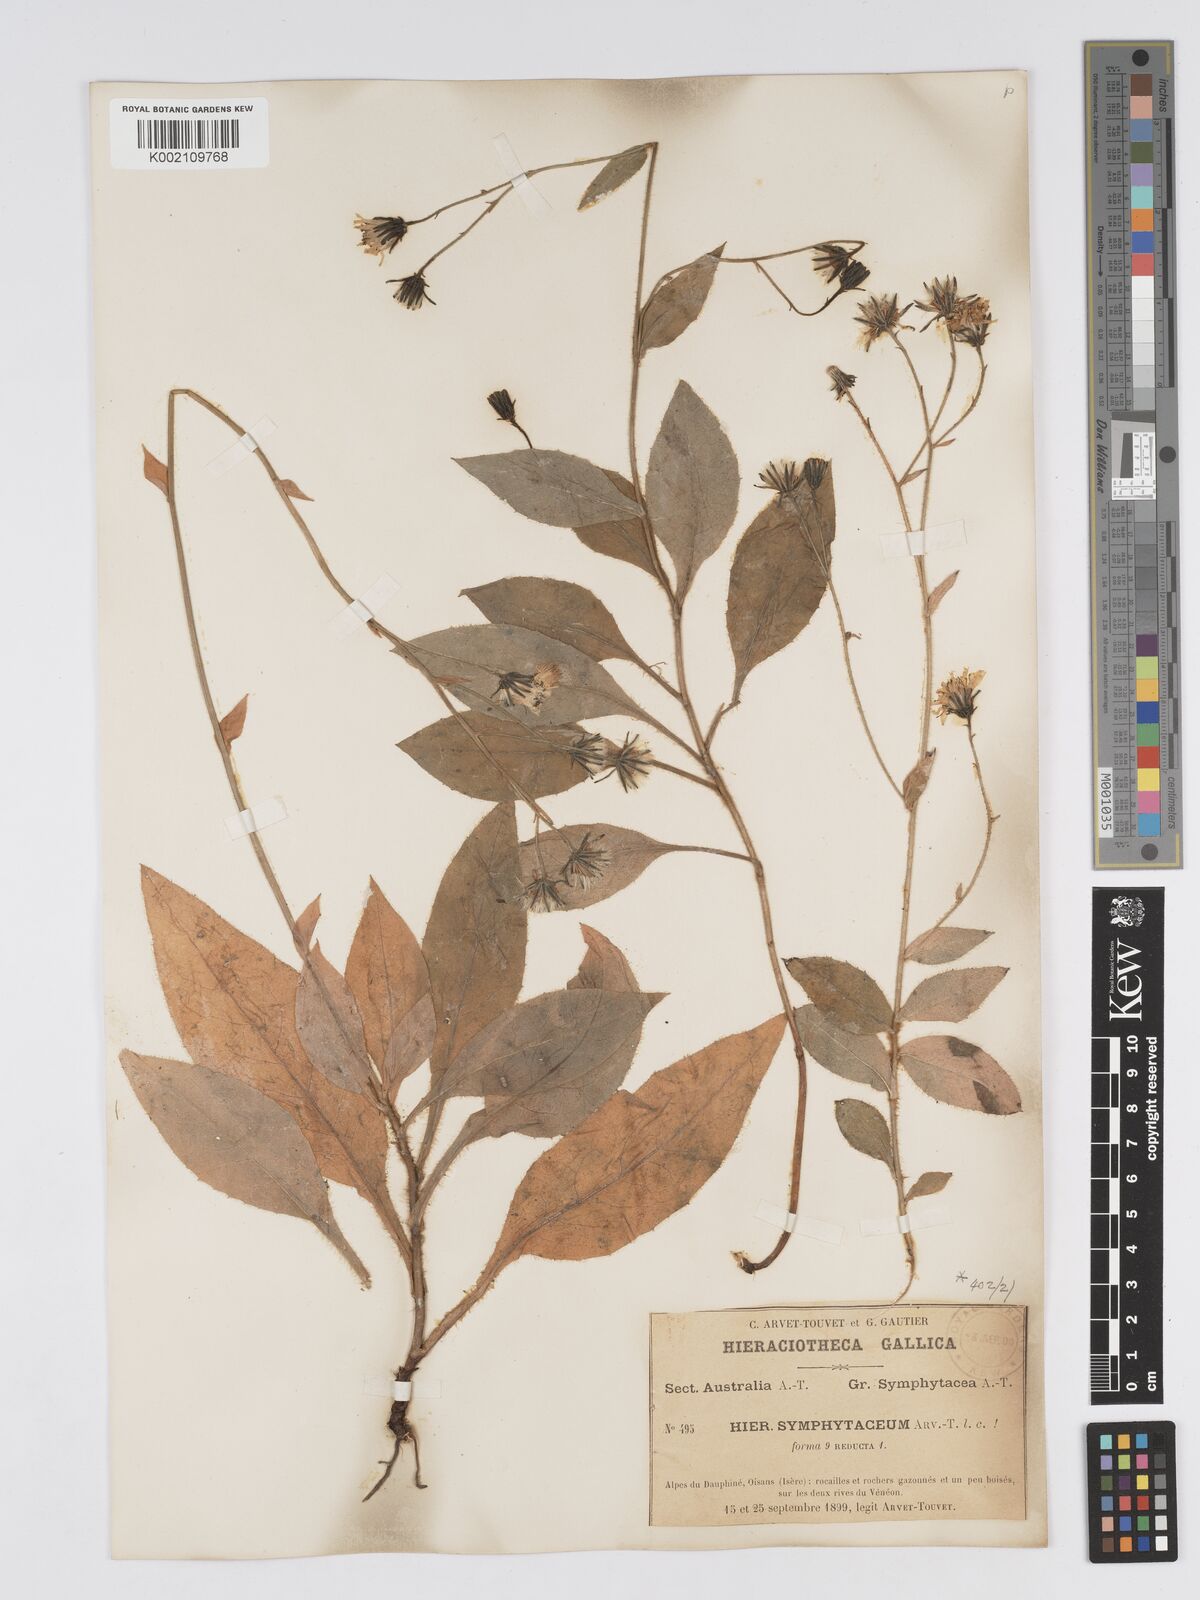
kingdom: Plantae
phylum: Tracheophyta
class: Magnoliopsida
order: Asterales
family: Asteraceae
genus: Hieracium
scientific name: Hieracium symphytaceum
